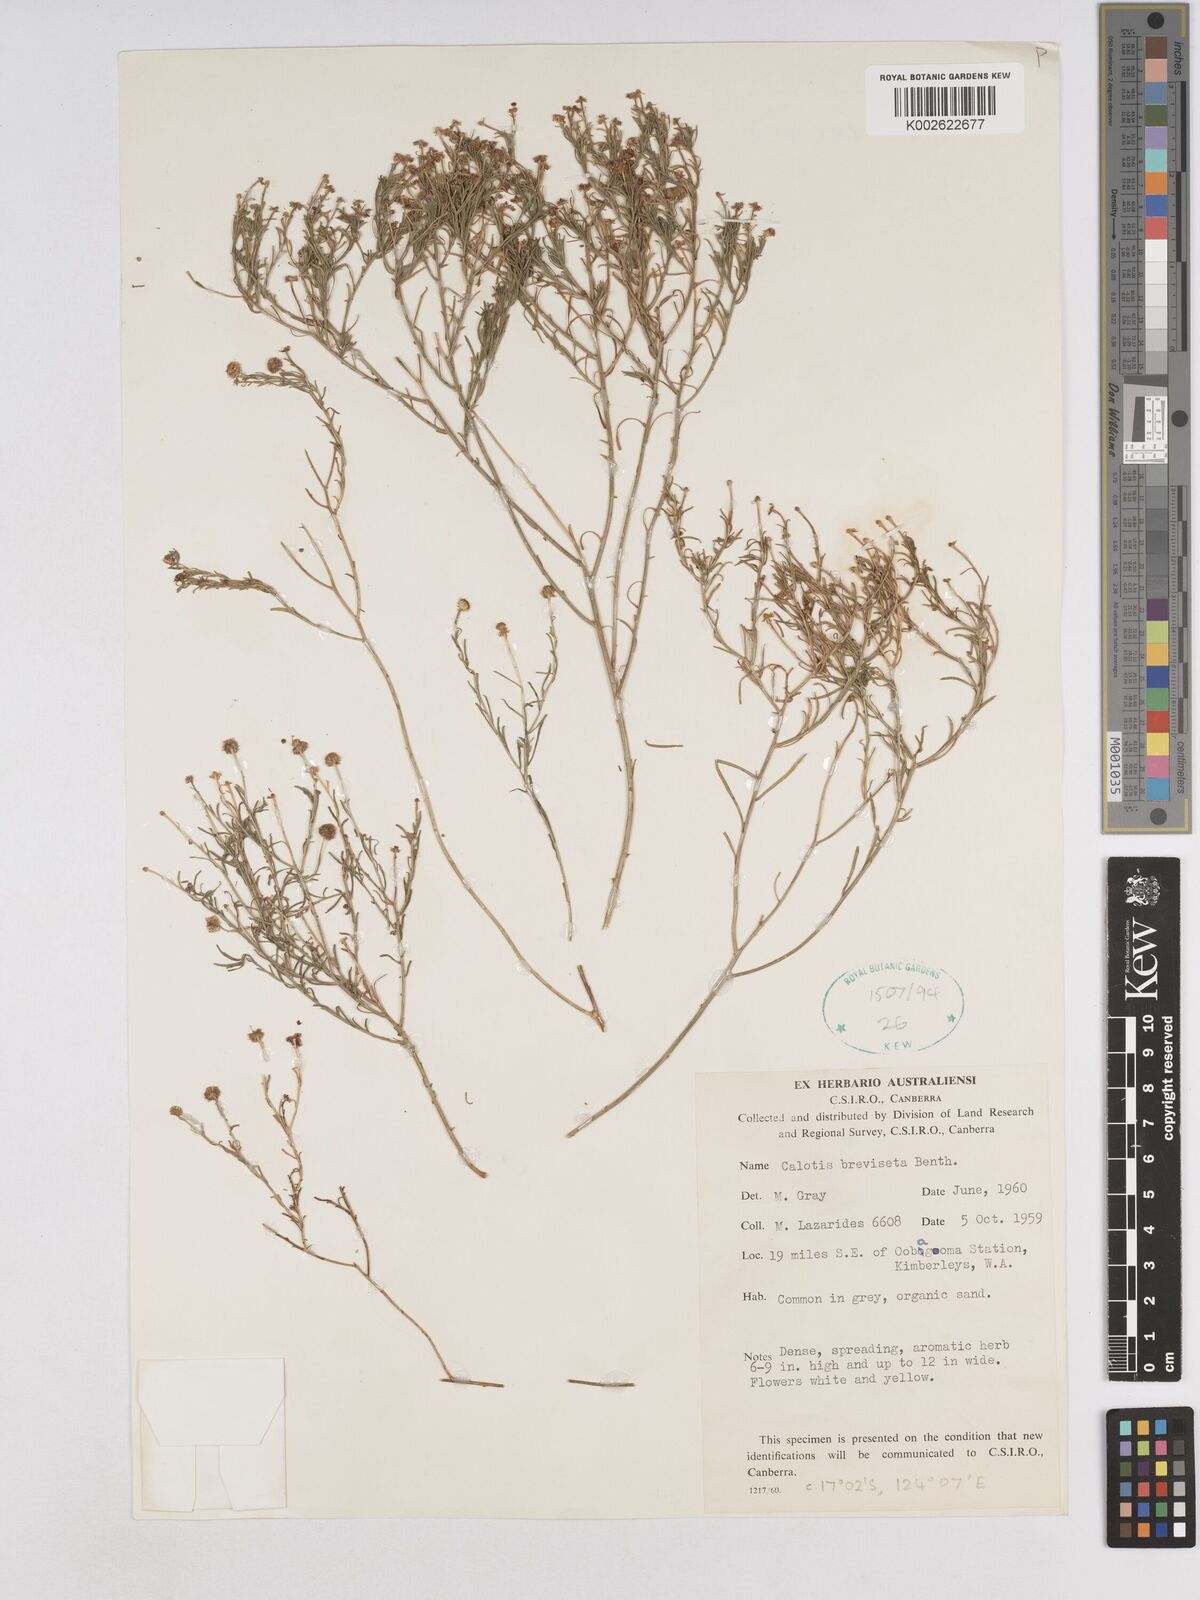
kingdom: Plantae
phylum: Tracheophyta
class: Magnoliopsida
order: Asterales
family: Asteraceae
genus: Calotis
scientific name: Calotis breviseta
